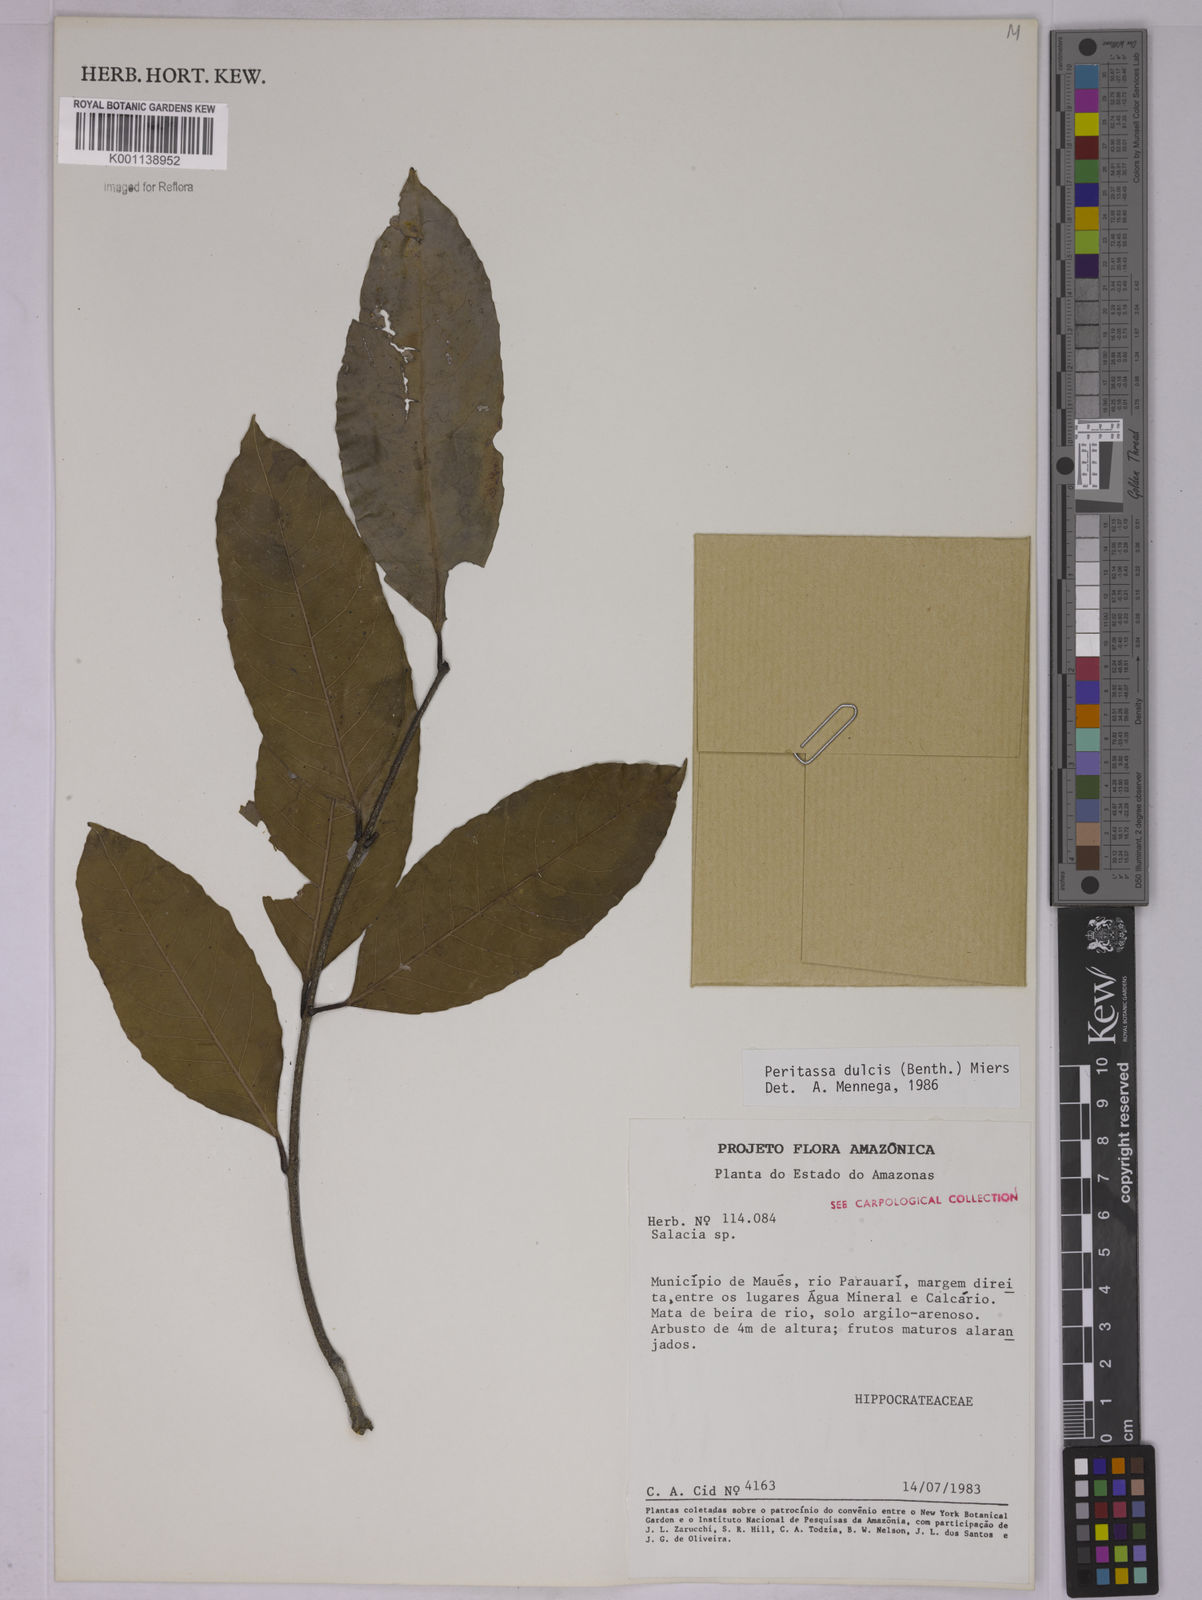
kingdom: Plantae
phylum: Tracheophyta
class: Magnoliopsida
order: Celastrales
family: Celastraceae
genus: Peritassa
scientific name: Peritassa dulcis
